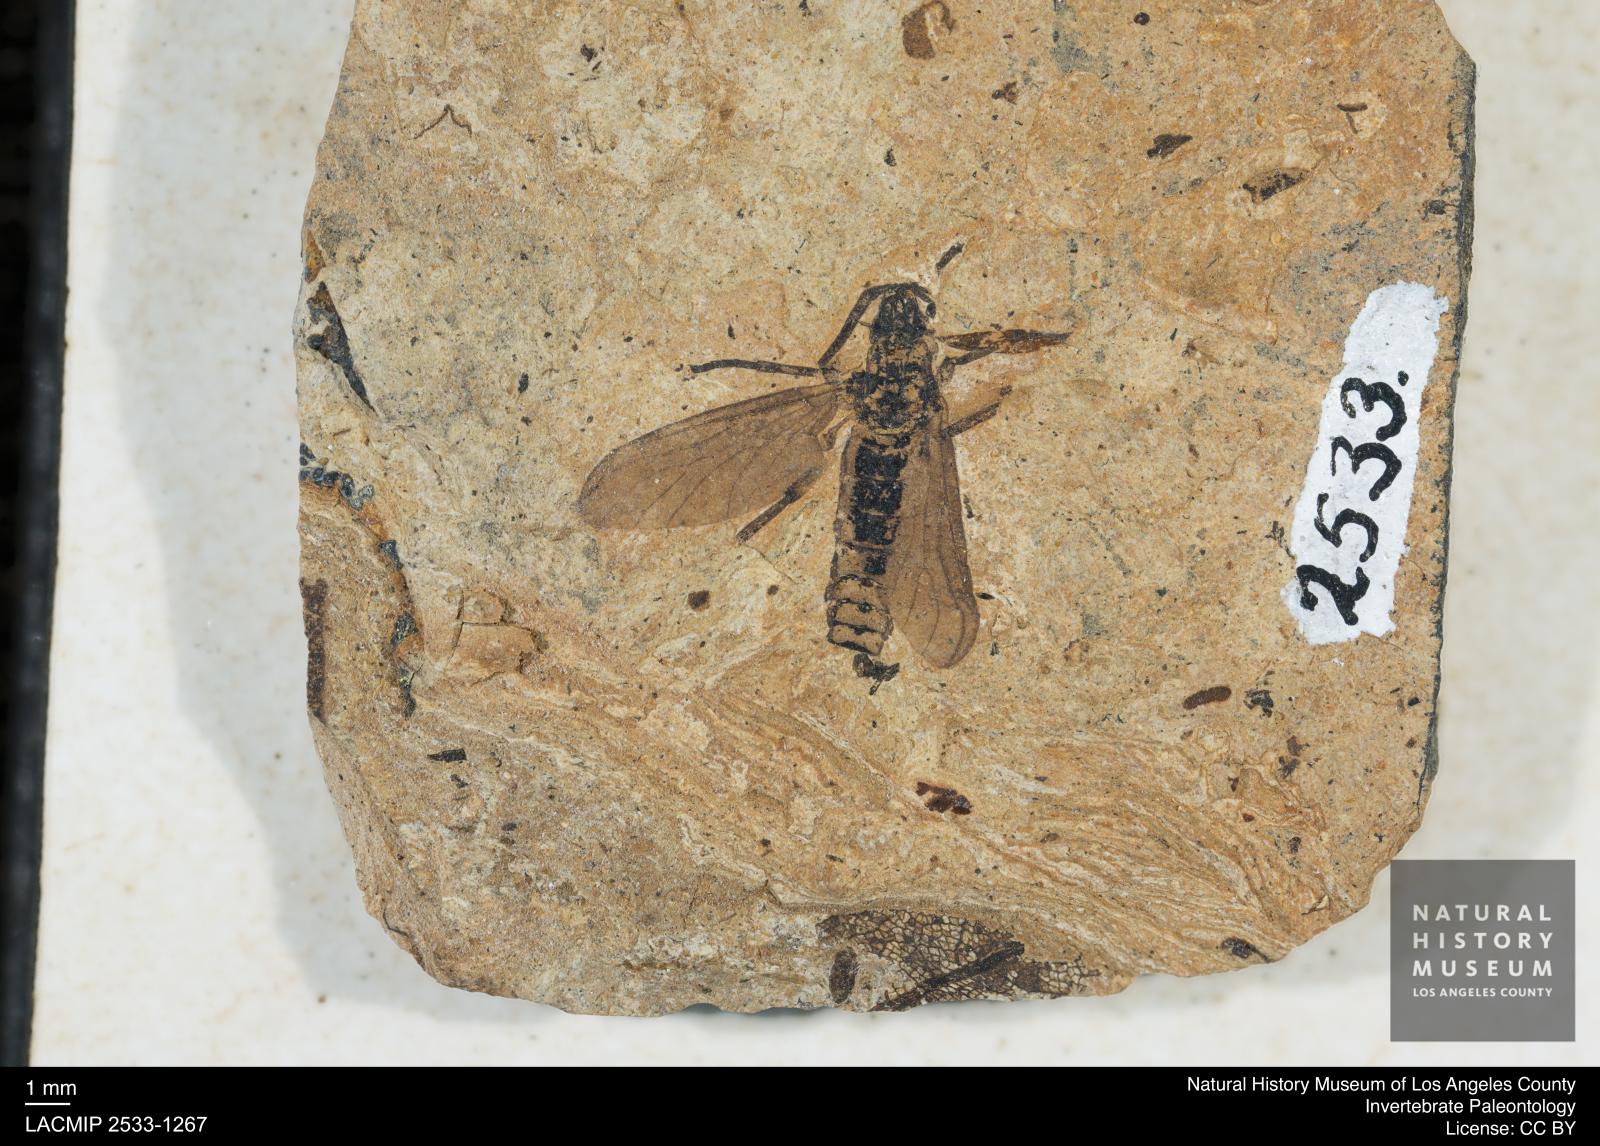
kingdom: Animalia
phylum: Arthropoda
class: Insecta
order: Diptera
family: Bibionidae
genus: Plecia
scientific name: Plecia
